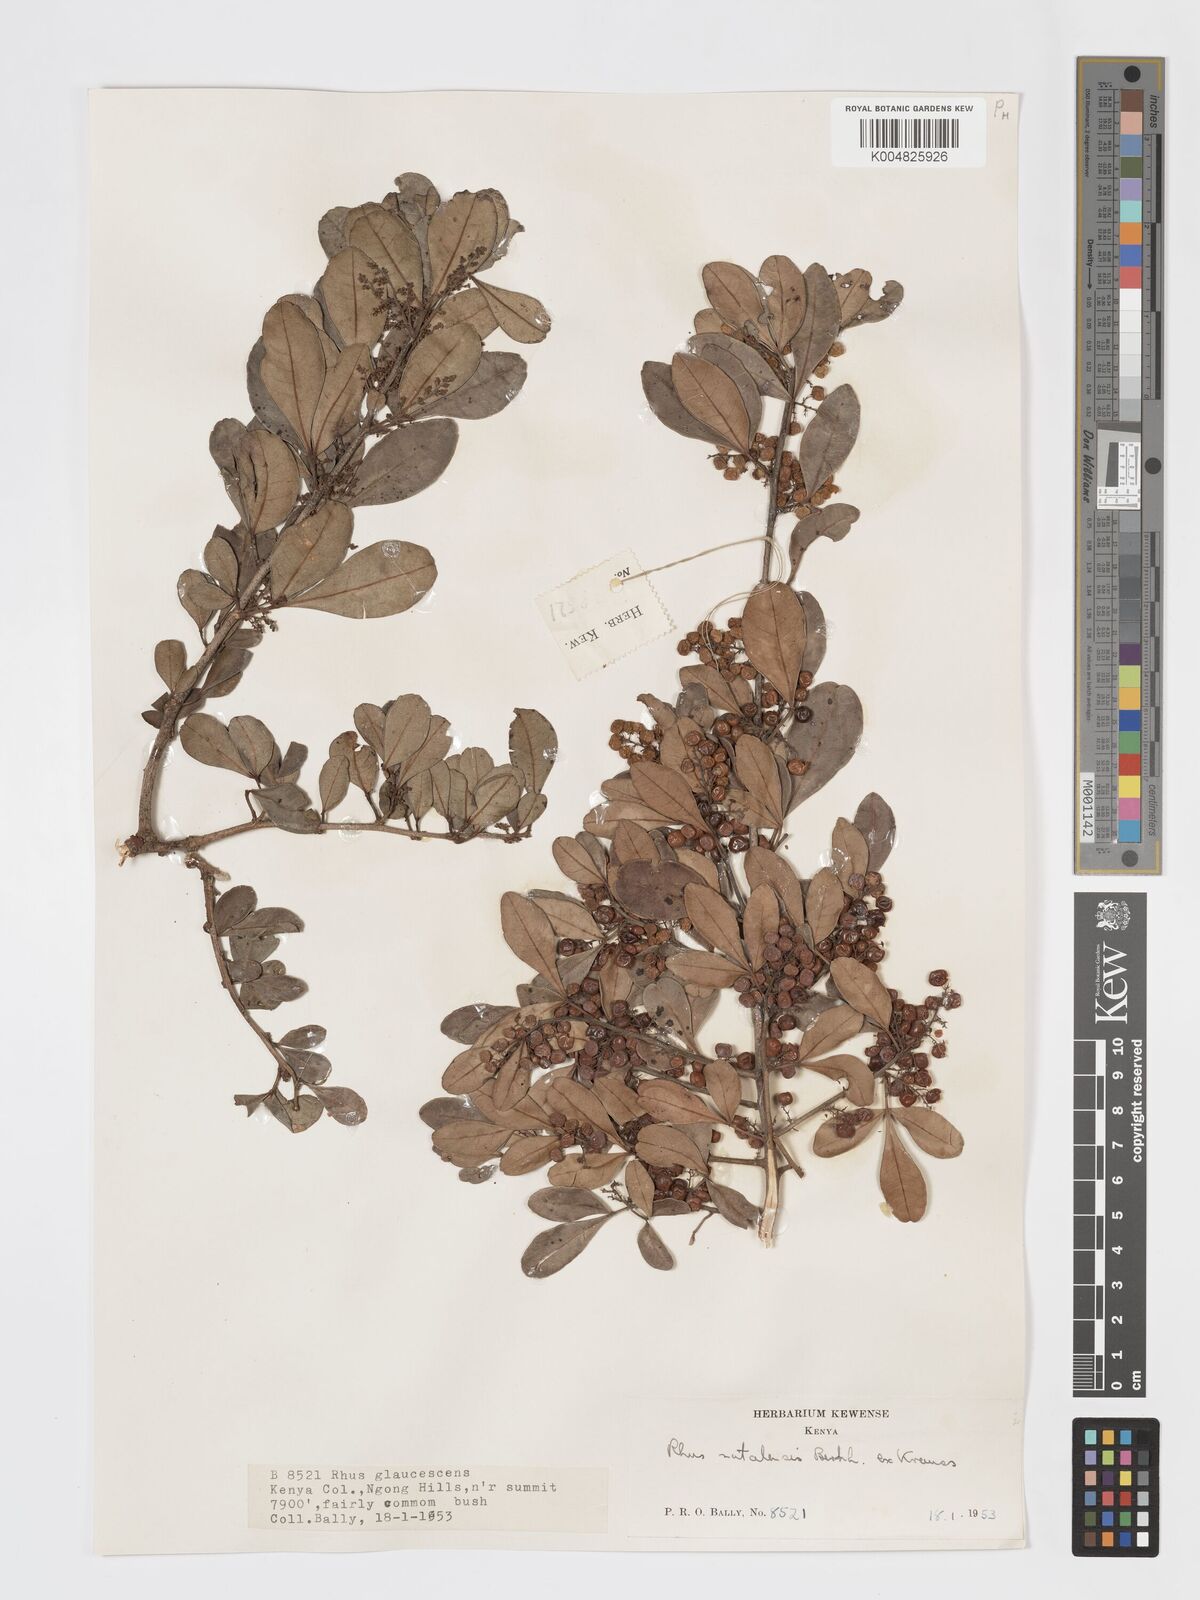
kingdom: Plantae
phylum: Tracheophyta
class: Magnoliopsida
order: Sapindales
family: Anacardiaceae
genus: Searsia
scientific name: Searsia natalensis
